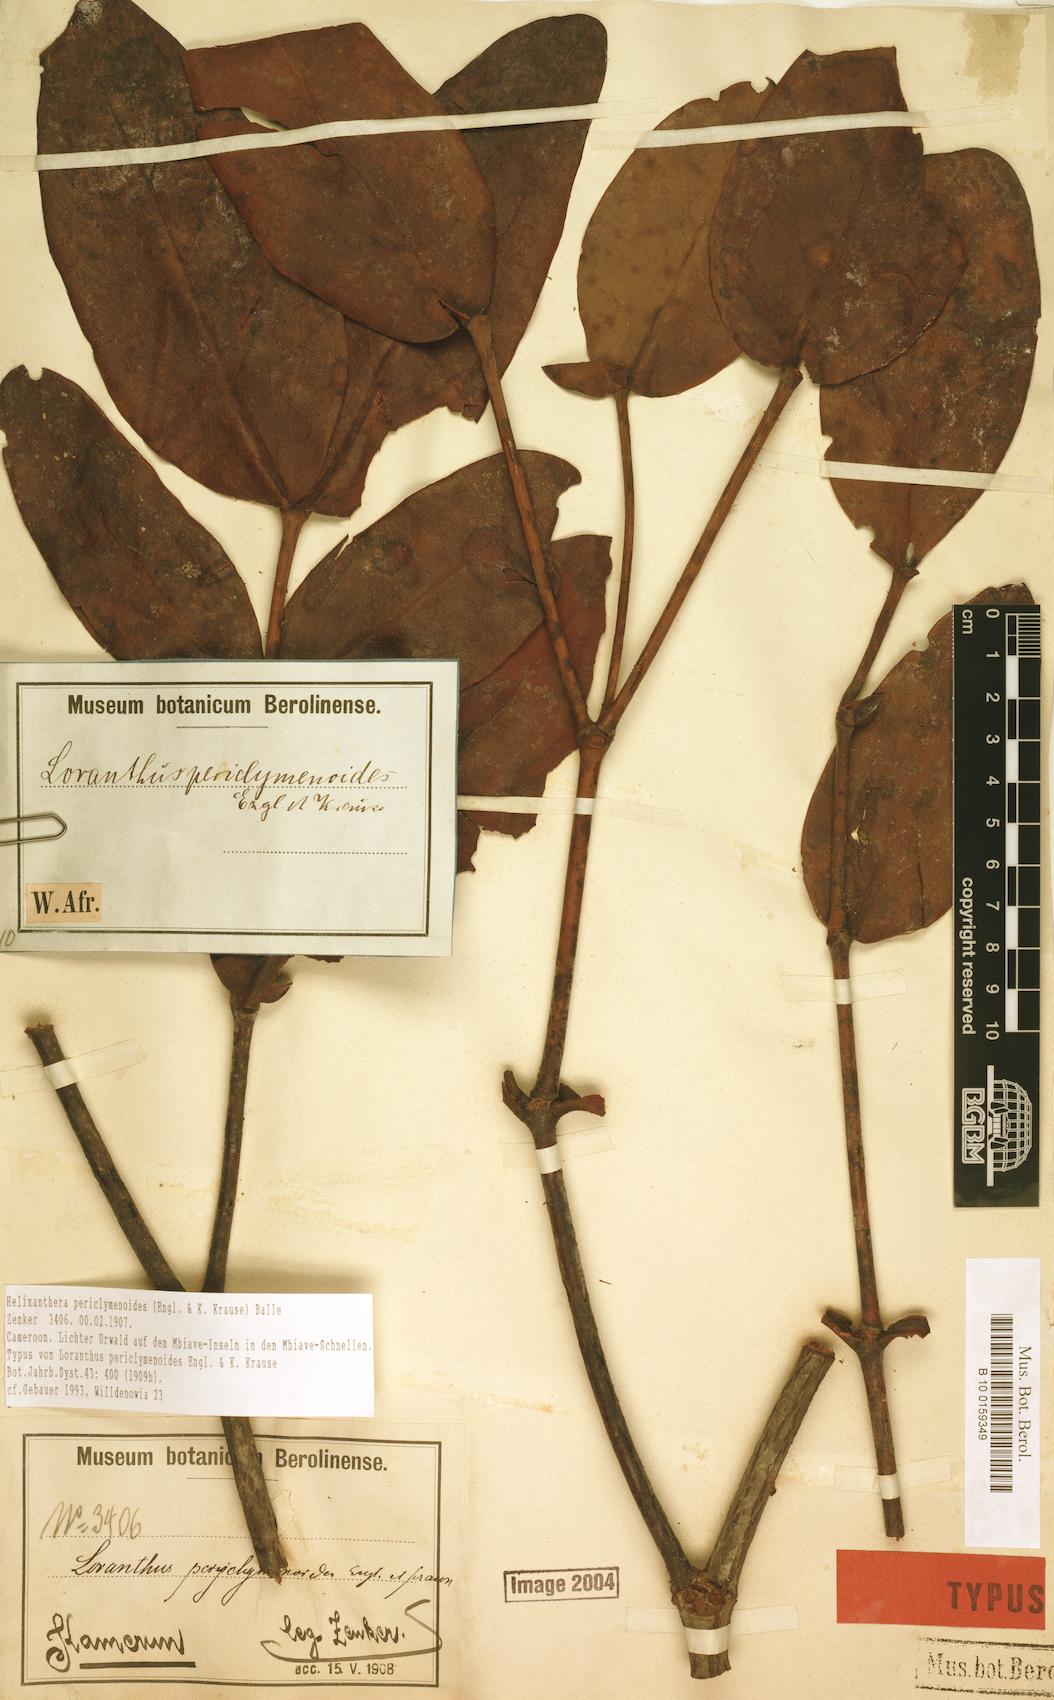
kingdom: Plantae
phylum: Tracheophyta
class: Magnoliopsida
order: Santalales
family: Loranthaceae
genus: Helixanthera
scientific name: Helixanthera periclymenoides
